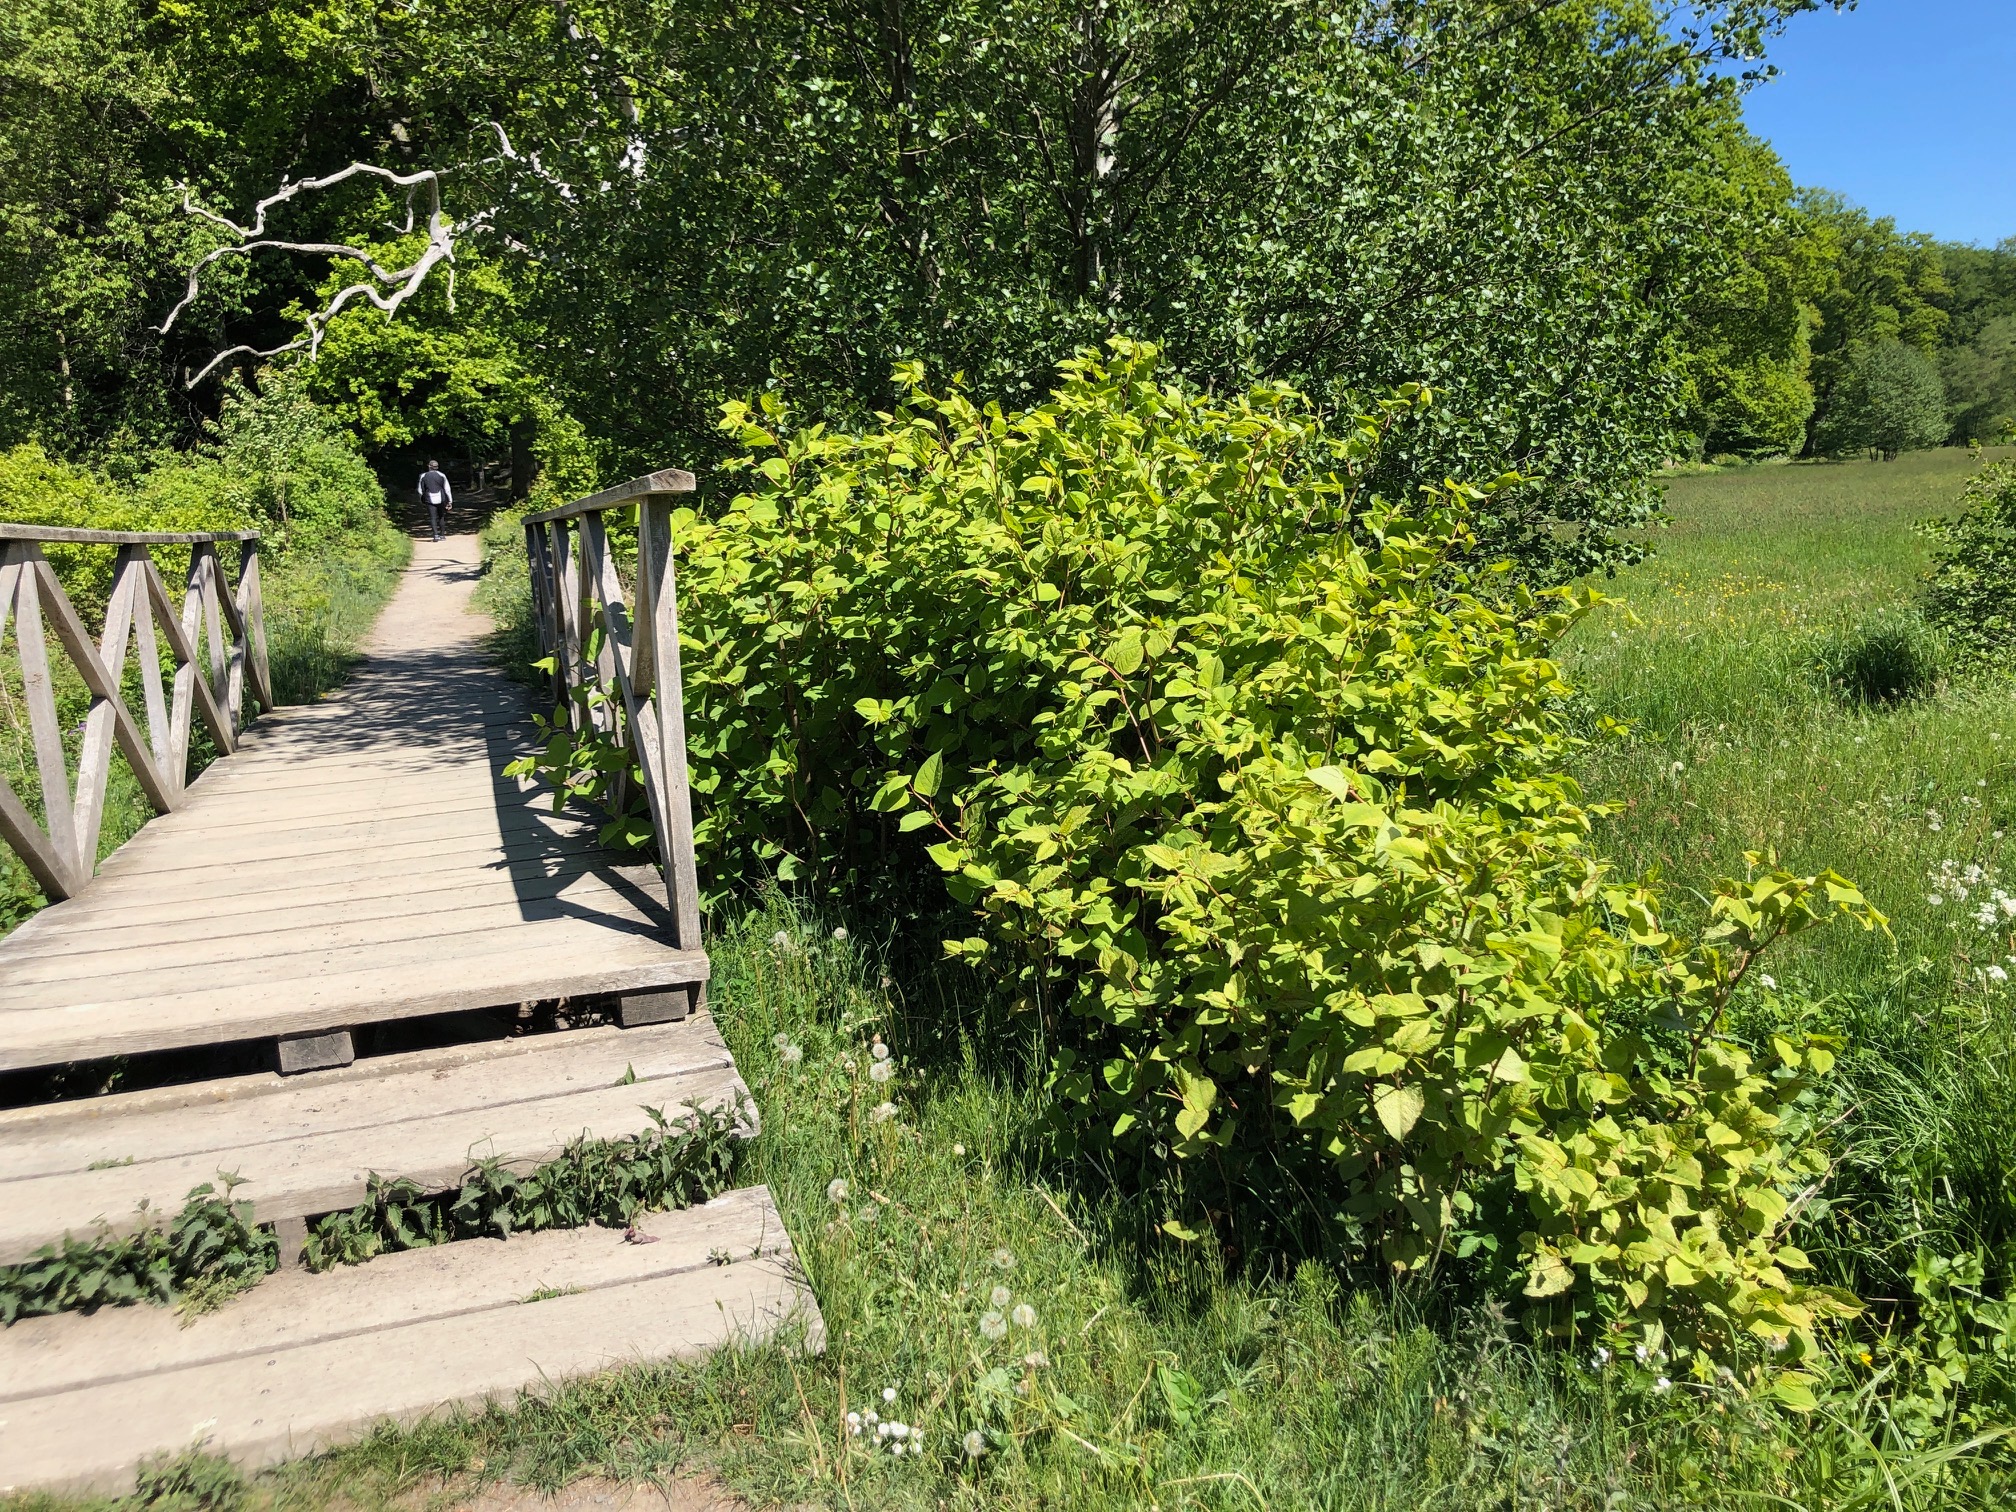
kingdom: Plantae
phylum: Tracheophyta
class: Magnoliopsida
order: Caryophyllales
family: Polygonaceae
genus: Reynoutria
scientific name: Reynoutria japonica
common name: Japan-pileurt
